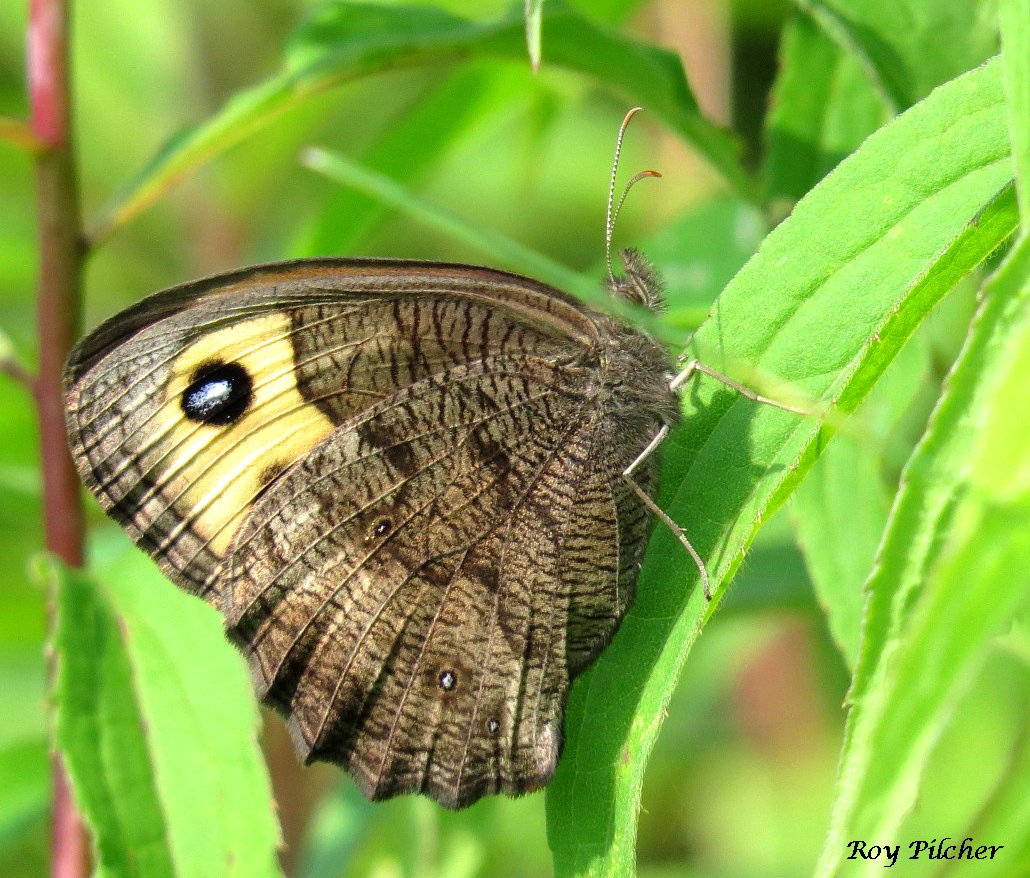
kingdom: Animalia
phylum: Arthropoda
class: Insecta
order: Lepidoptera
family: Nymphalidae
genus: Cercyonis
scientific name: Cercyonis pegala
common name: Common Wood-Nymph
